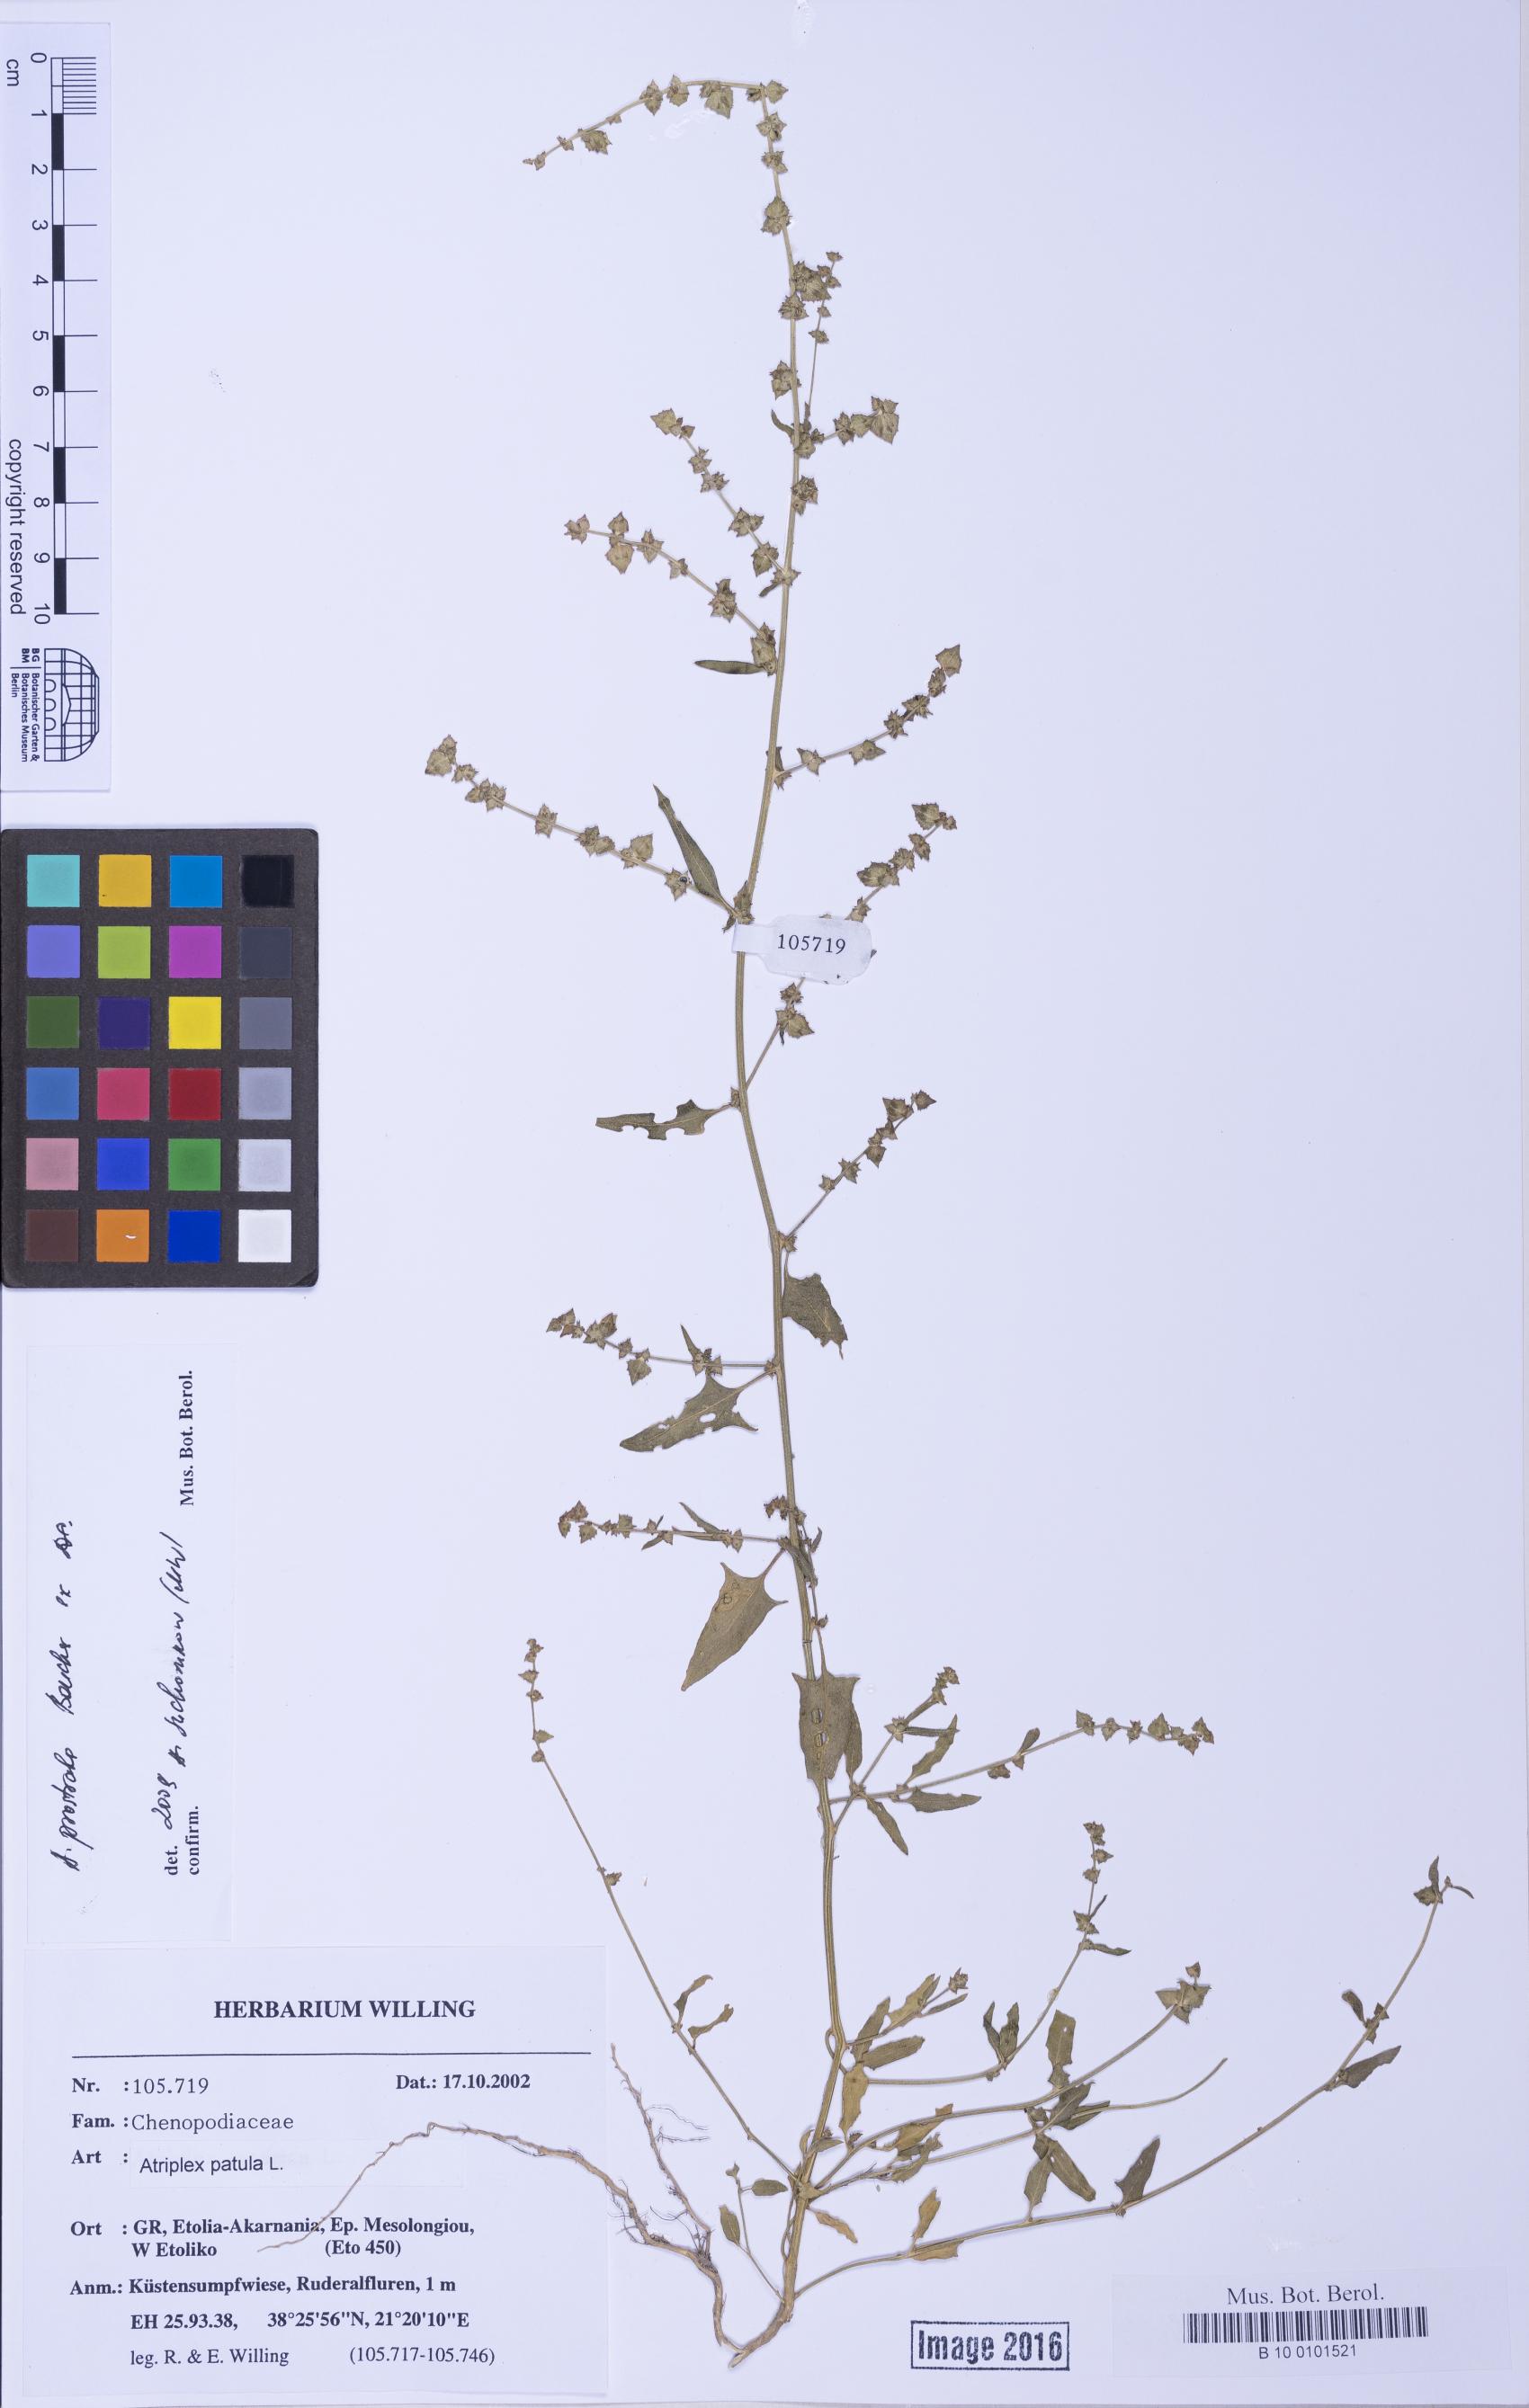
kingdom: Plantae
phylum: Tracheophyta
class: Magnoliopsida
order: Caryophyllales
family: Amaranthaceae
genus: Atriplex
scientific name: Atriplex prostrata
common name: Spear-leaved orache
